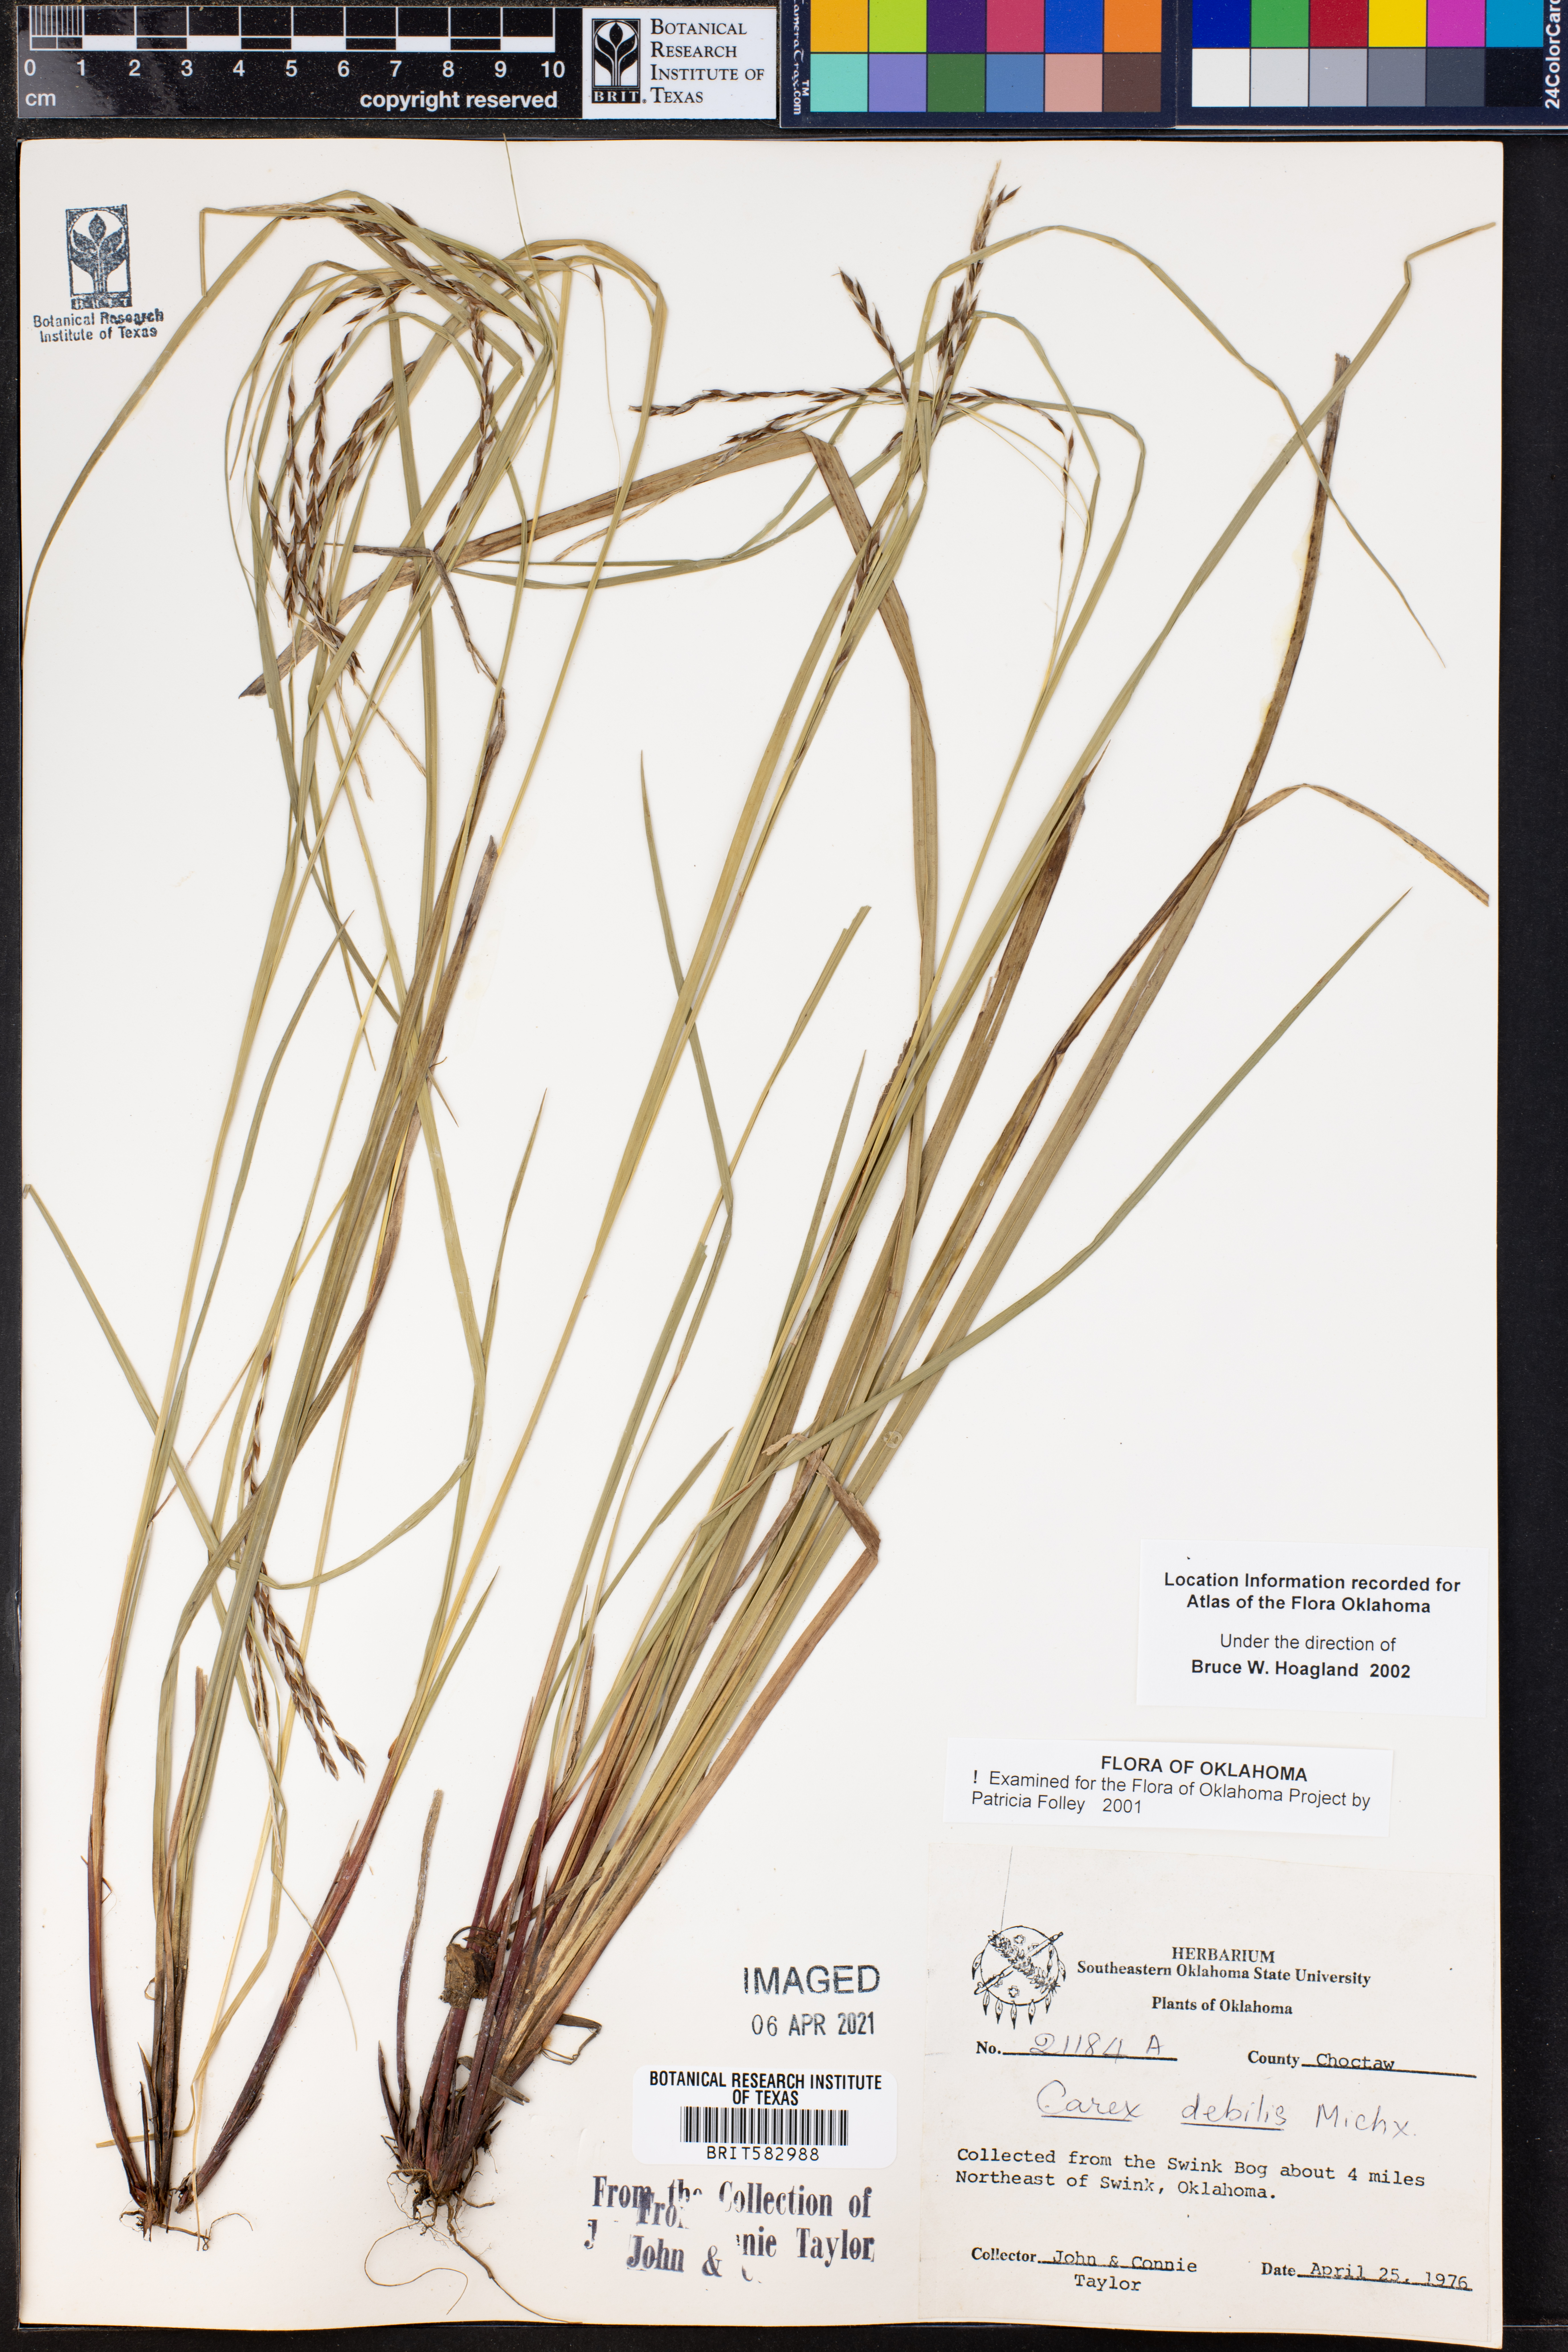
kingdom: Plantae
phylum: Tracheophyta
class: Liliopsida
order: Poales
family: Cyperaceae
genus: Carex
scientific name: Carex debilis
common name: White-edge sedge
